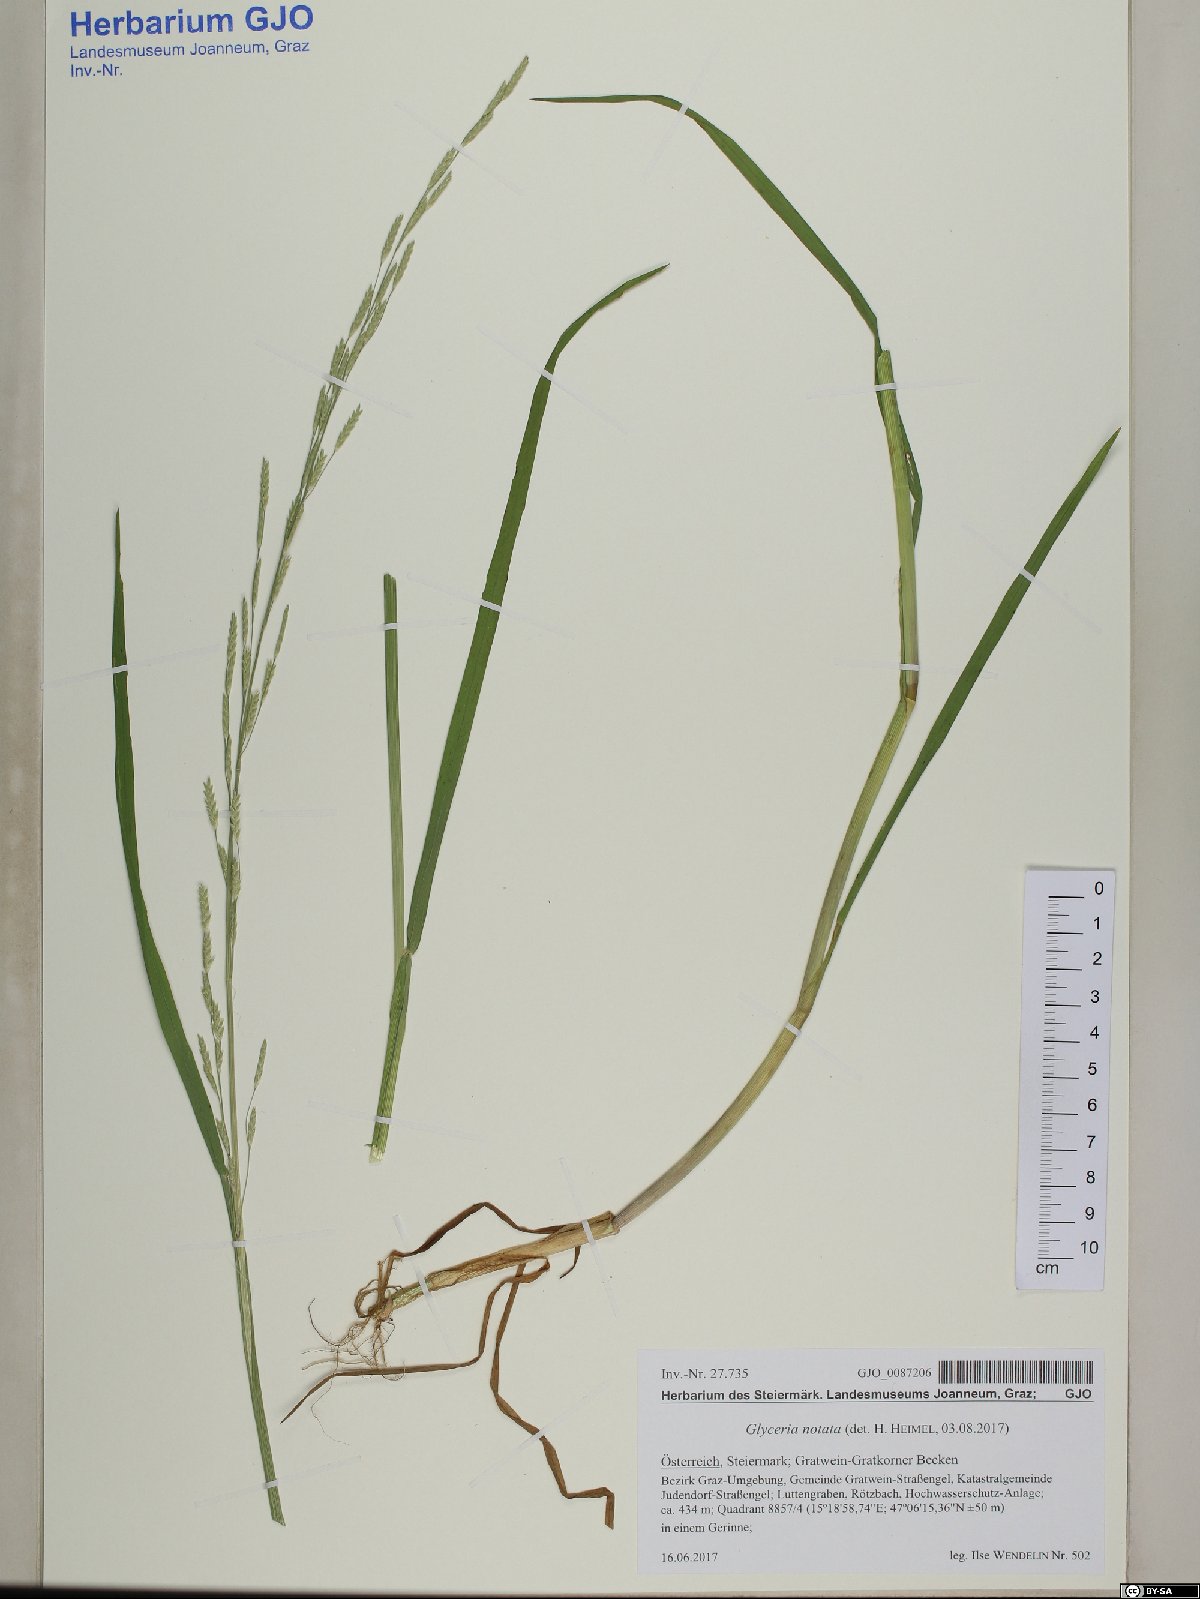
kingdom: Plantae
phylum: Tracheophyta
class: Liliopsida
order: Poales
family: Poaceae
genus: Glyceria
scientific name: Glyceria notata
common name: Plicate sweet-grass
